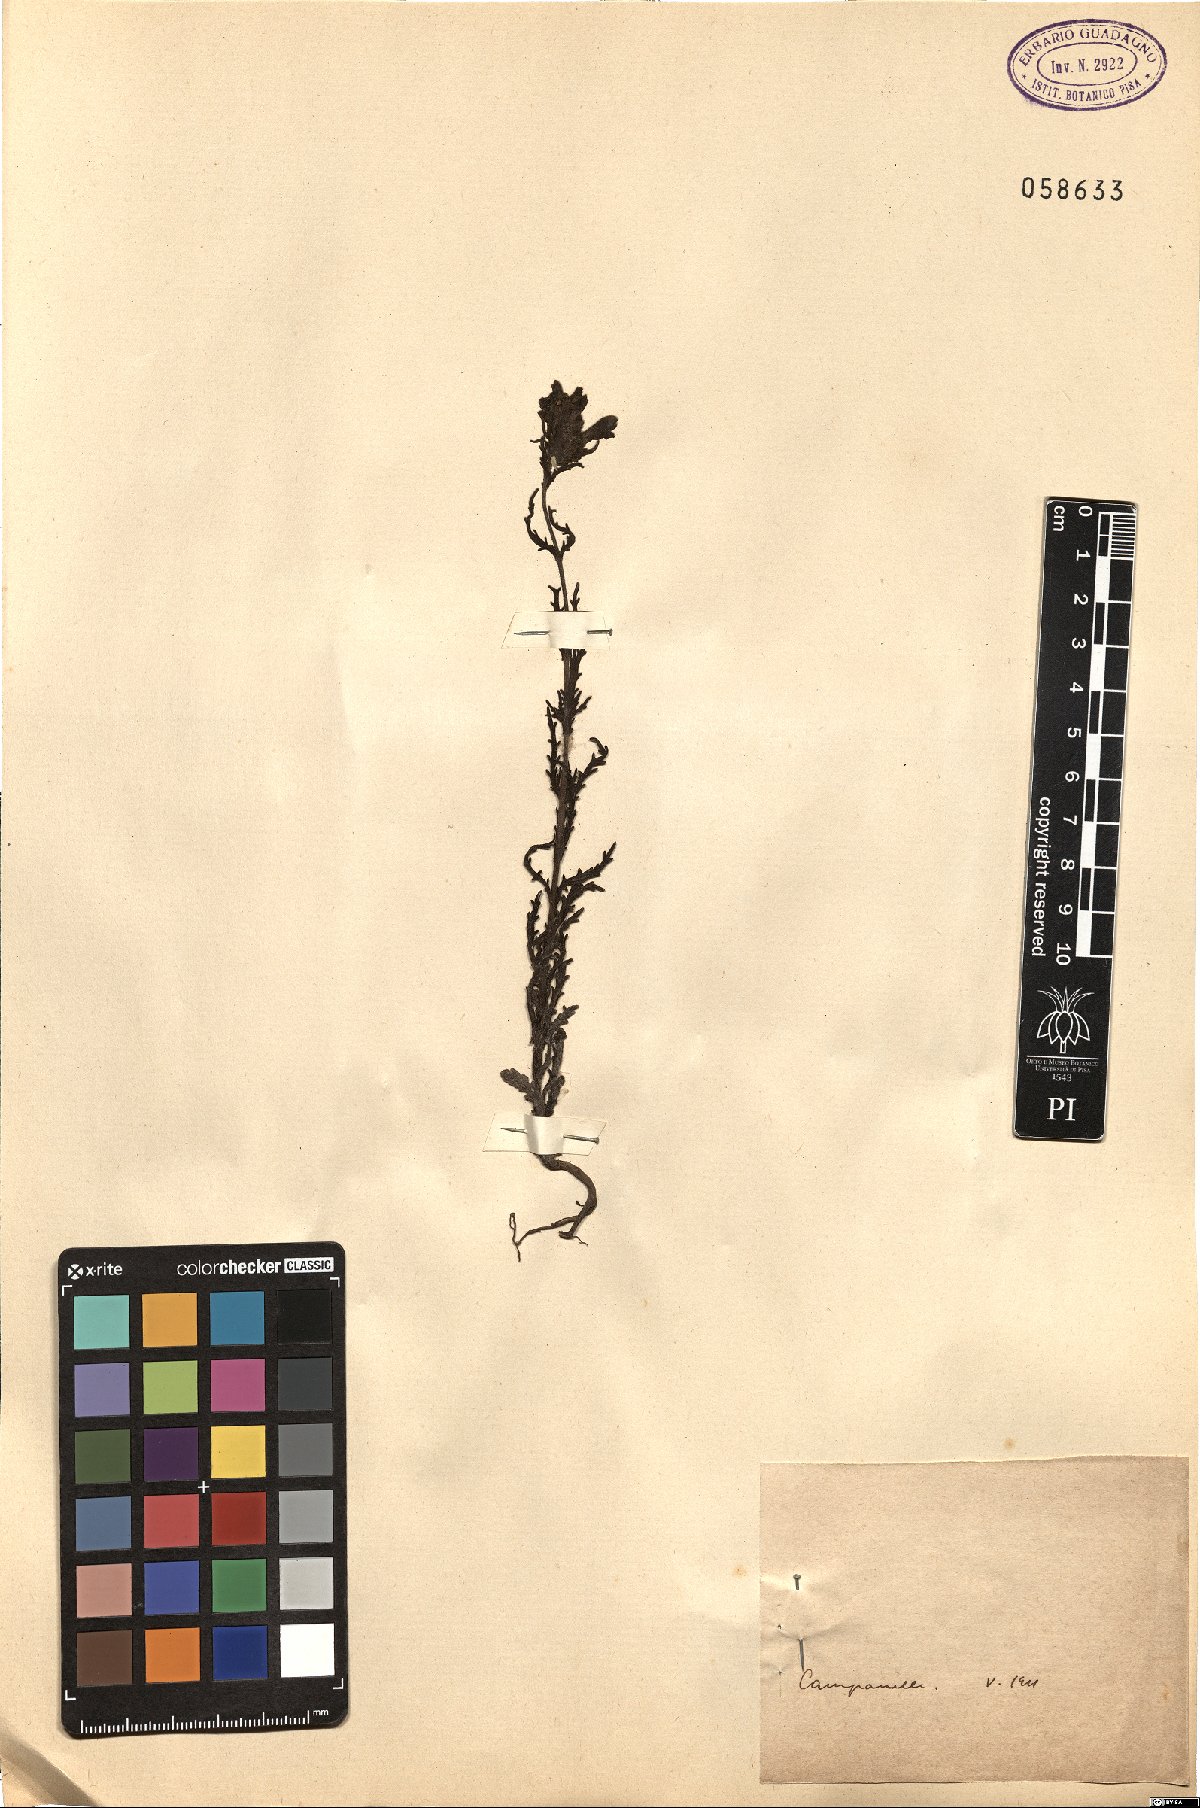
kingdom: Plantae
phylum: Tracheophyta
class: Magnoliopsida
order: Lamiales
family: Orobanchaceae
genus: Bartsia
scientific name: Bartsia
